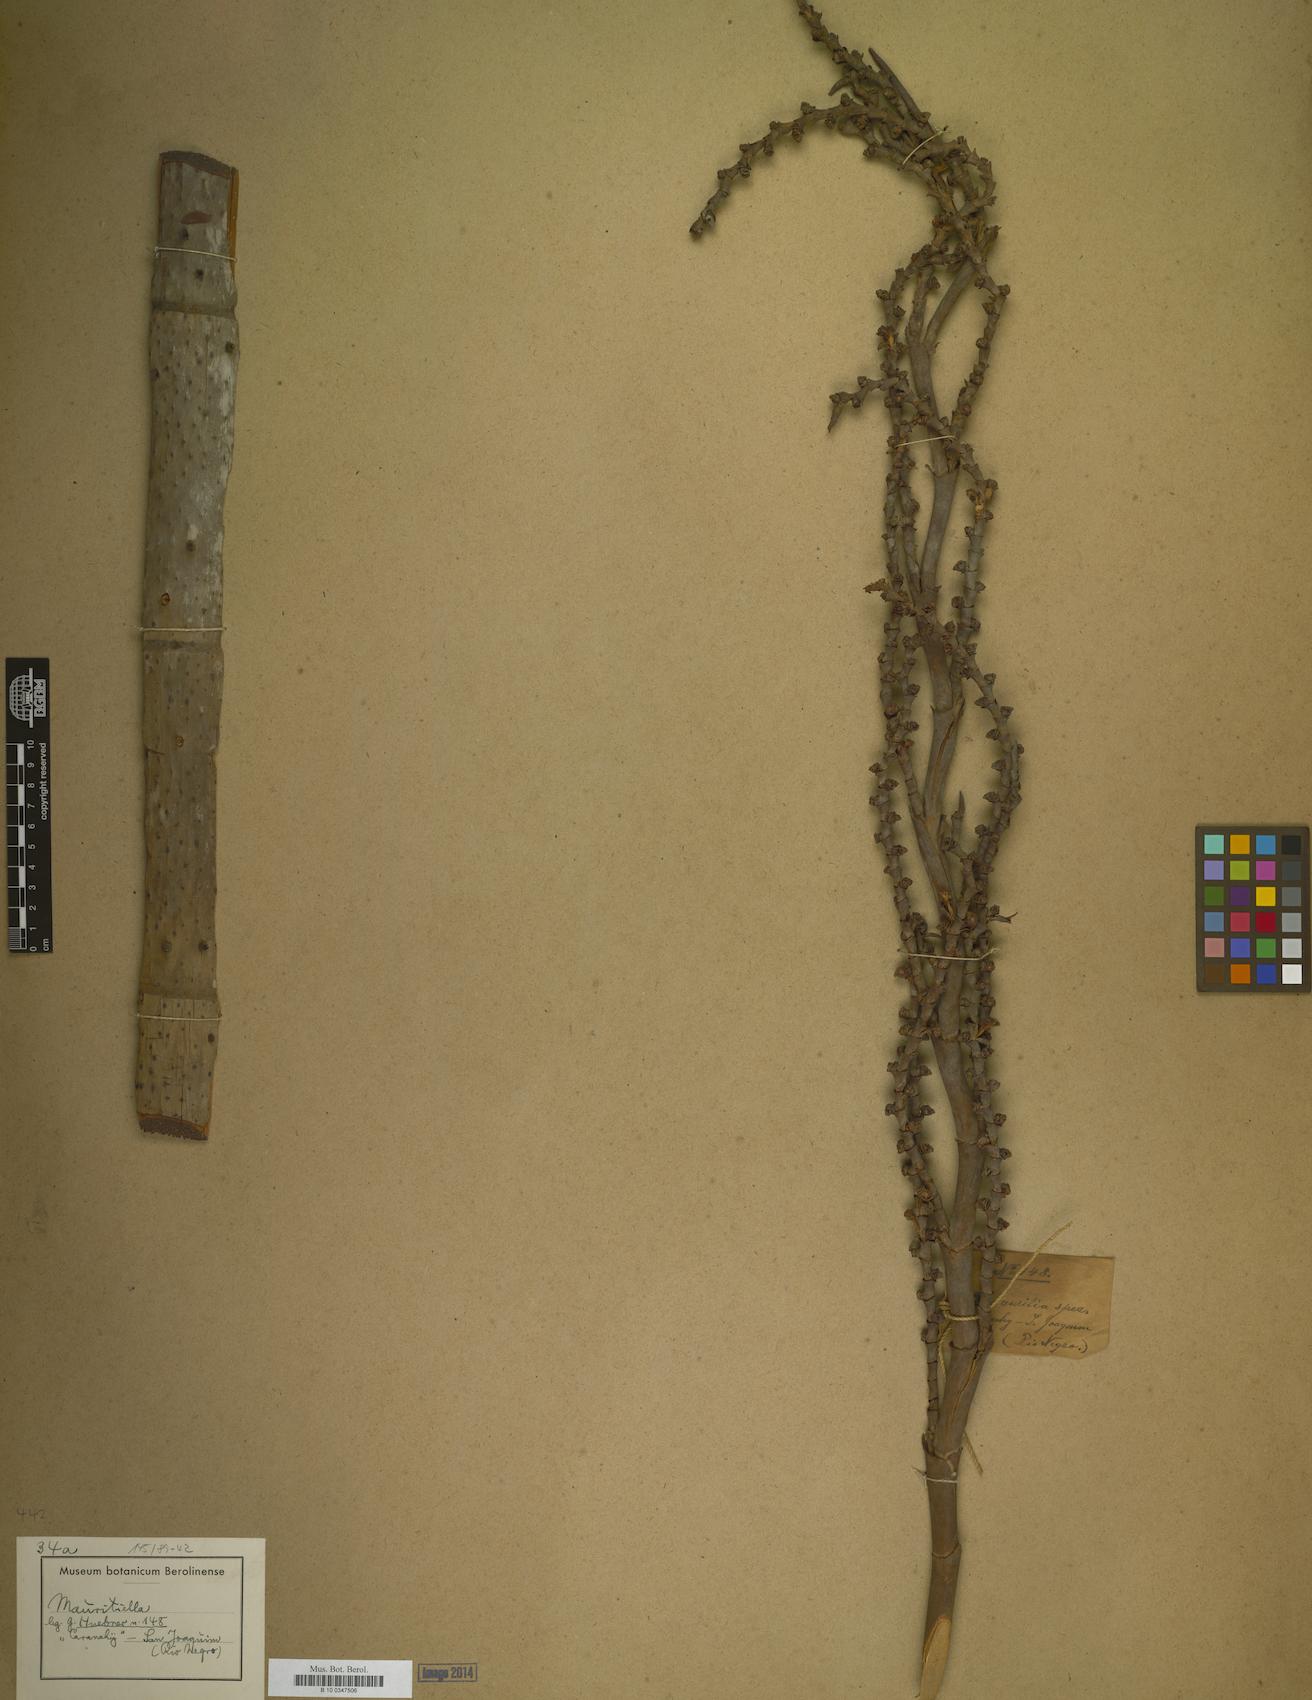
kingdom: Plantae
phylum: Tracheophyta
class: Liliopsida
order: Arecales
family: Arecaceae
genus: Mauritiella
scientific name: Mauritiella
